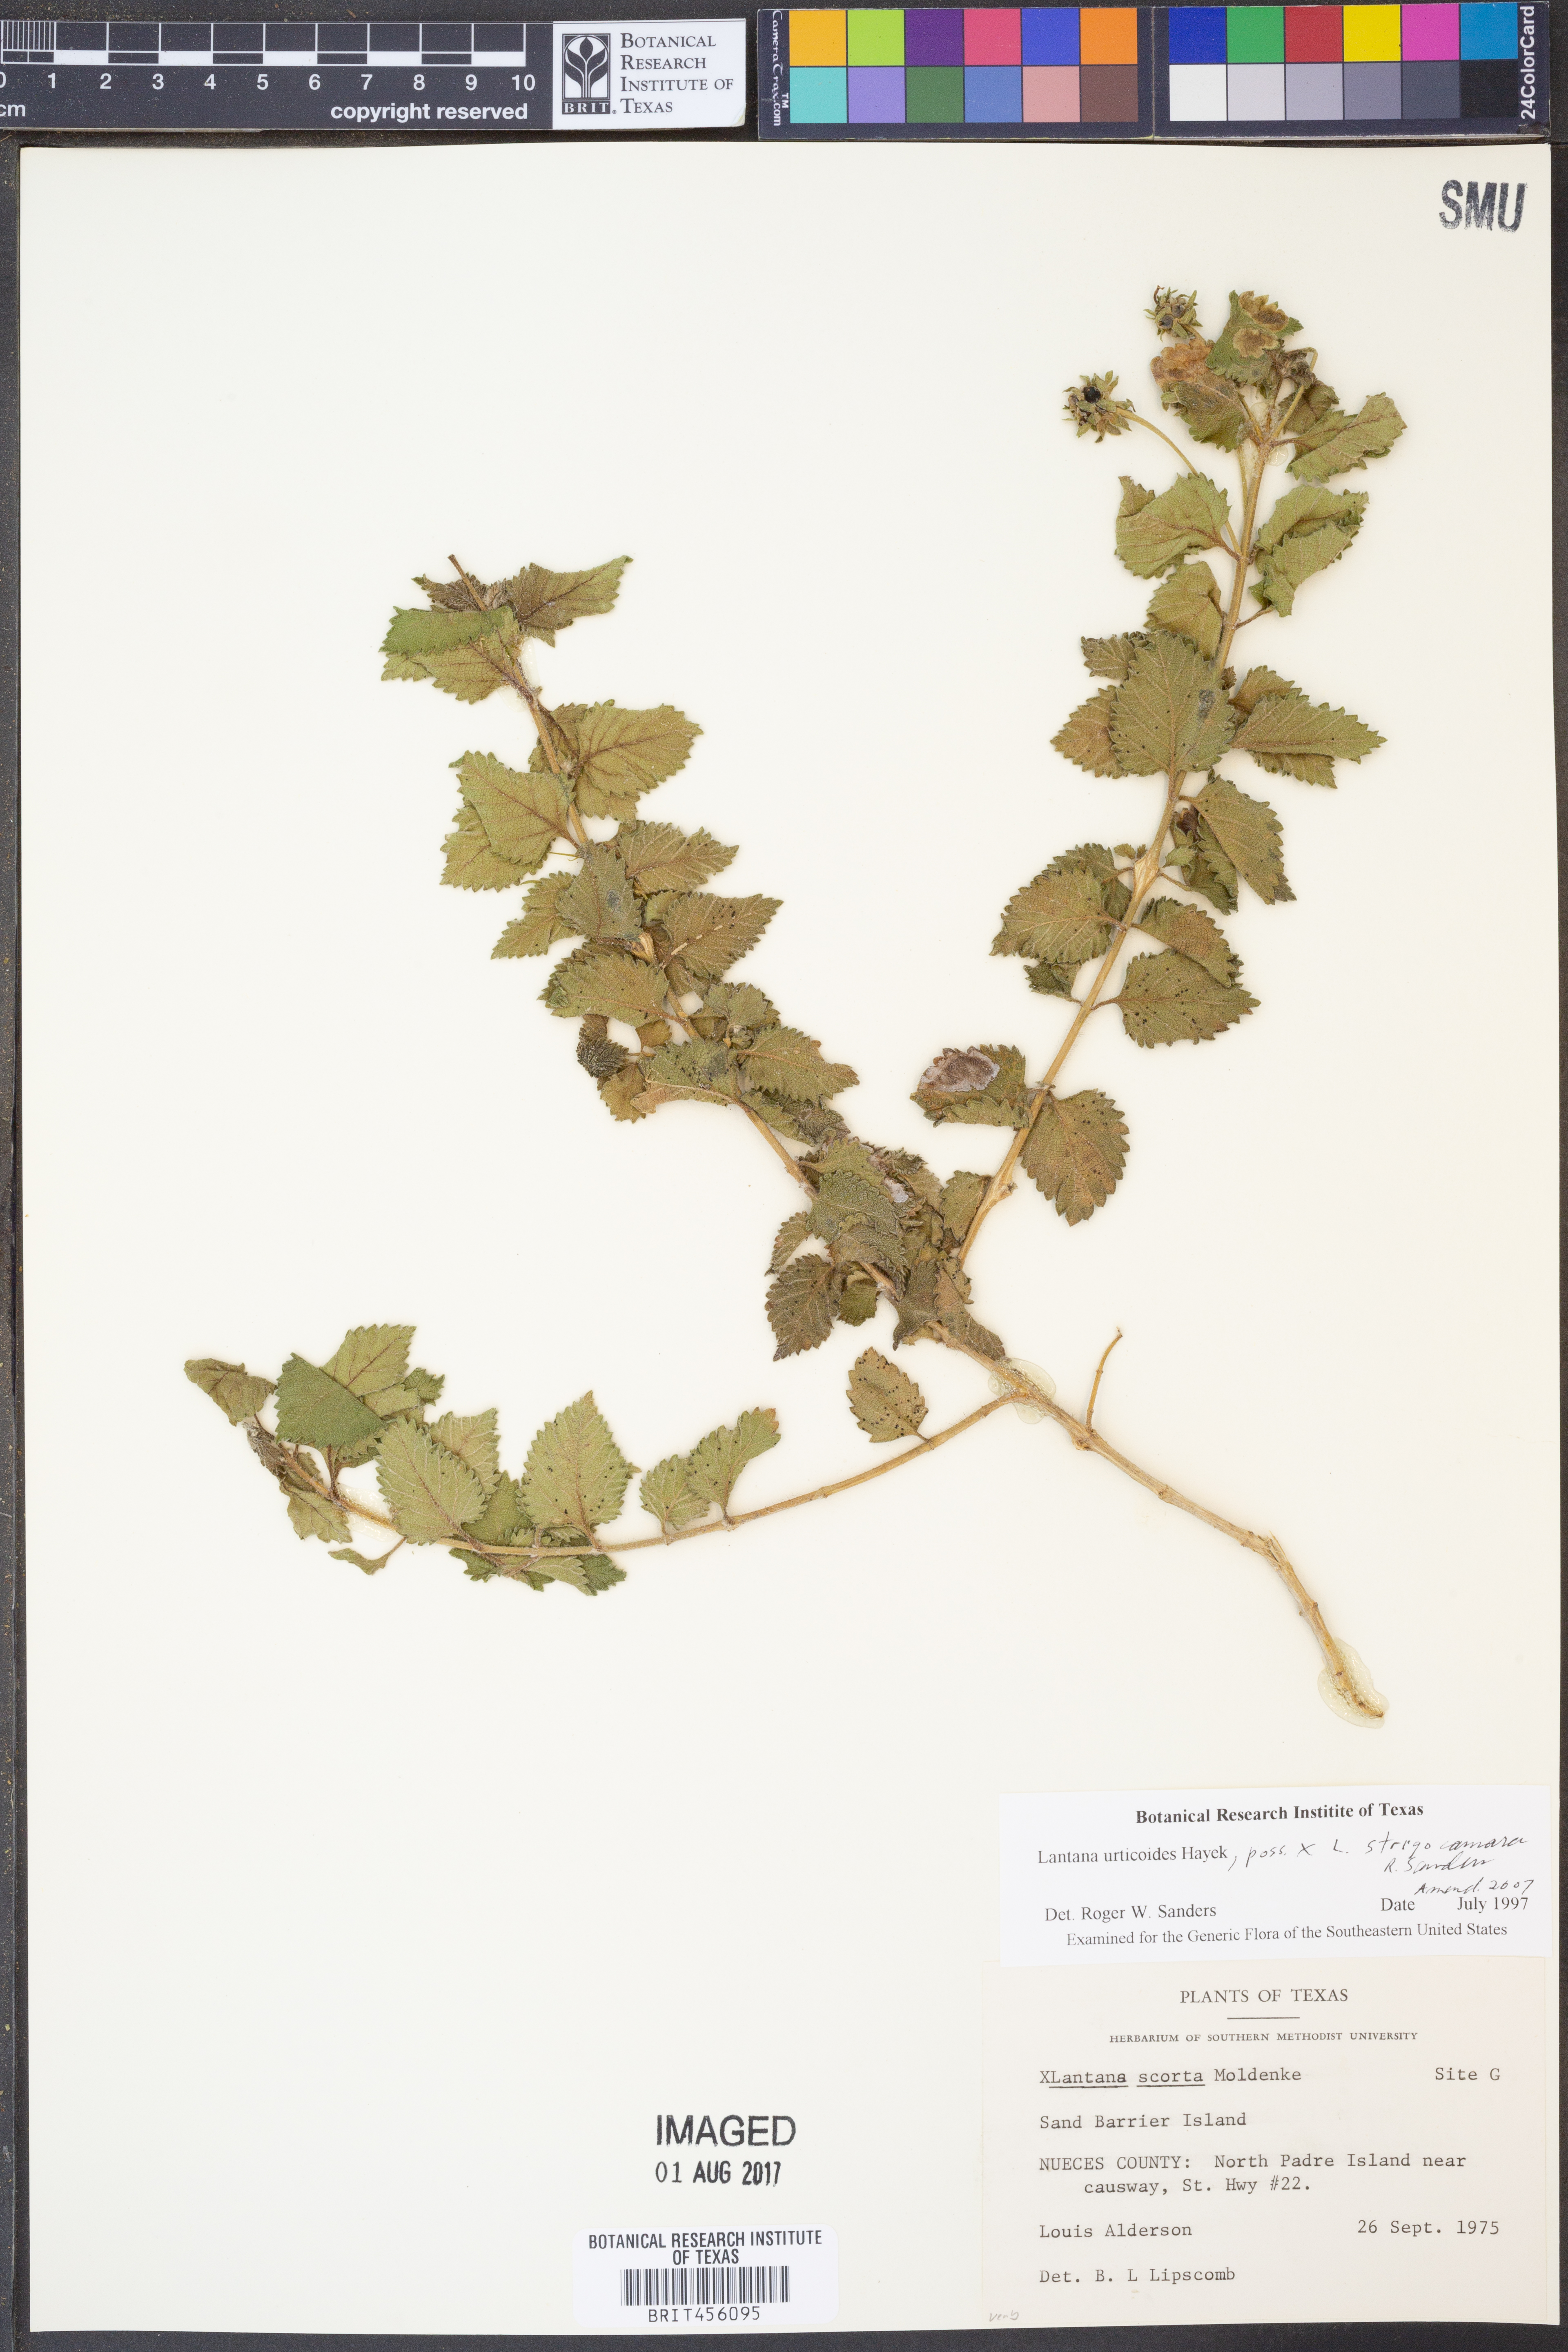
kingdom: Plantae
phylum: Tracheophyta
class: Magnoliopsida
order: Lamiales
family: Verbenaceae
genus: Lantana
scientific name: Lantana urticoides
